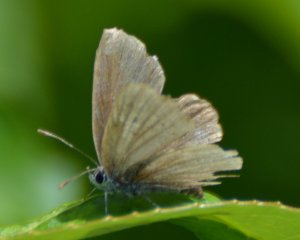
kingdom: Animalia
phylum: Arthropoda
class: Insecta
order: Lepidoptera
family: Lycaenidae
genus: Elkalyce
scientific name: Elkalyce amyntula
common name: Western Tailed-Blue
